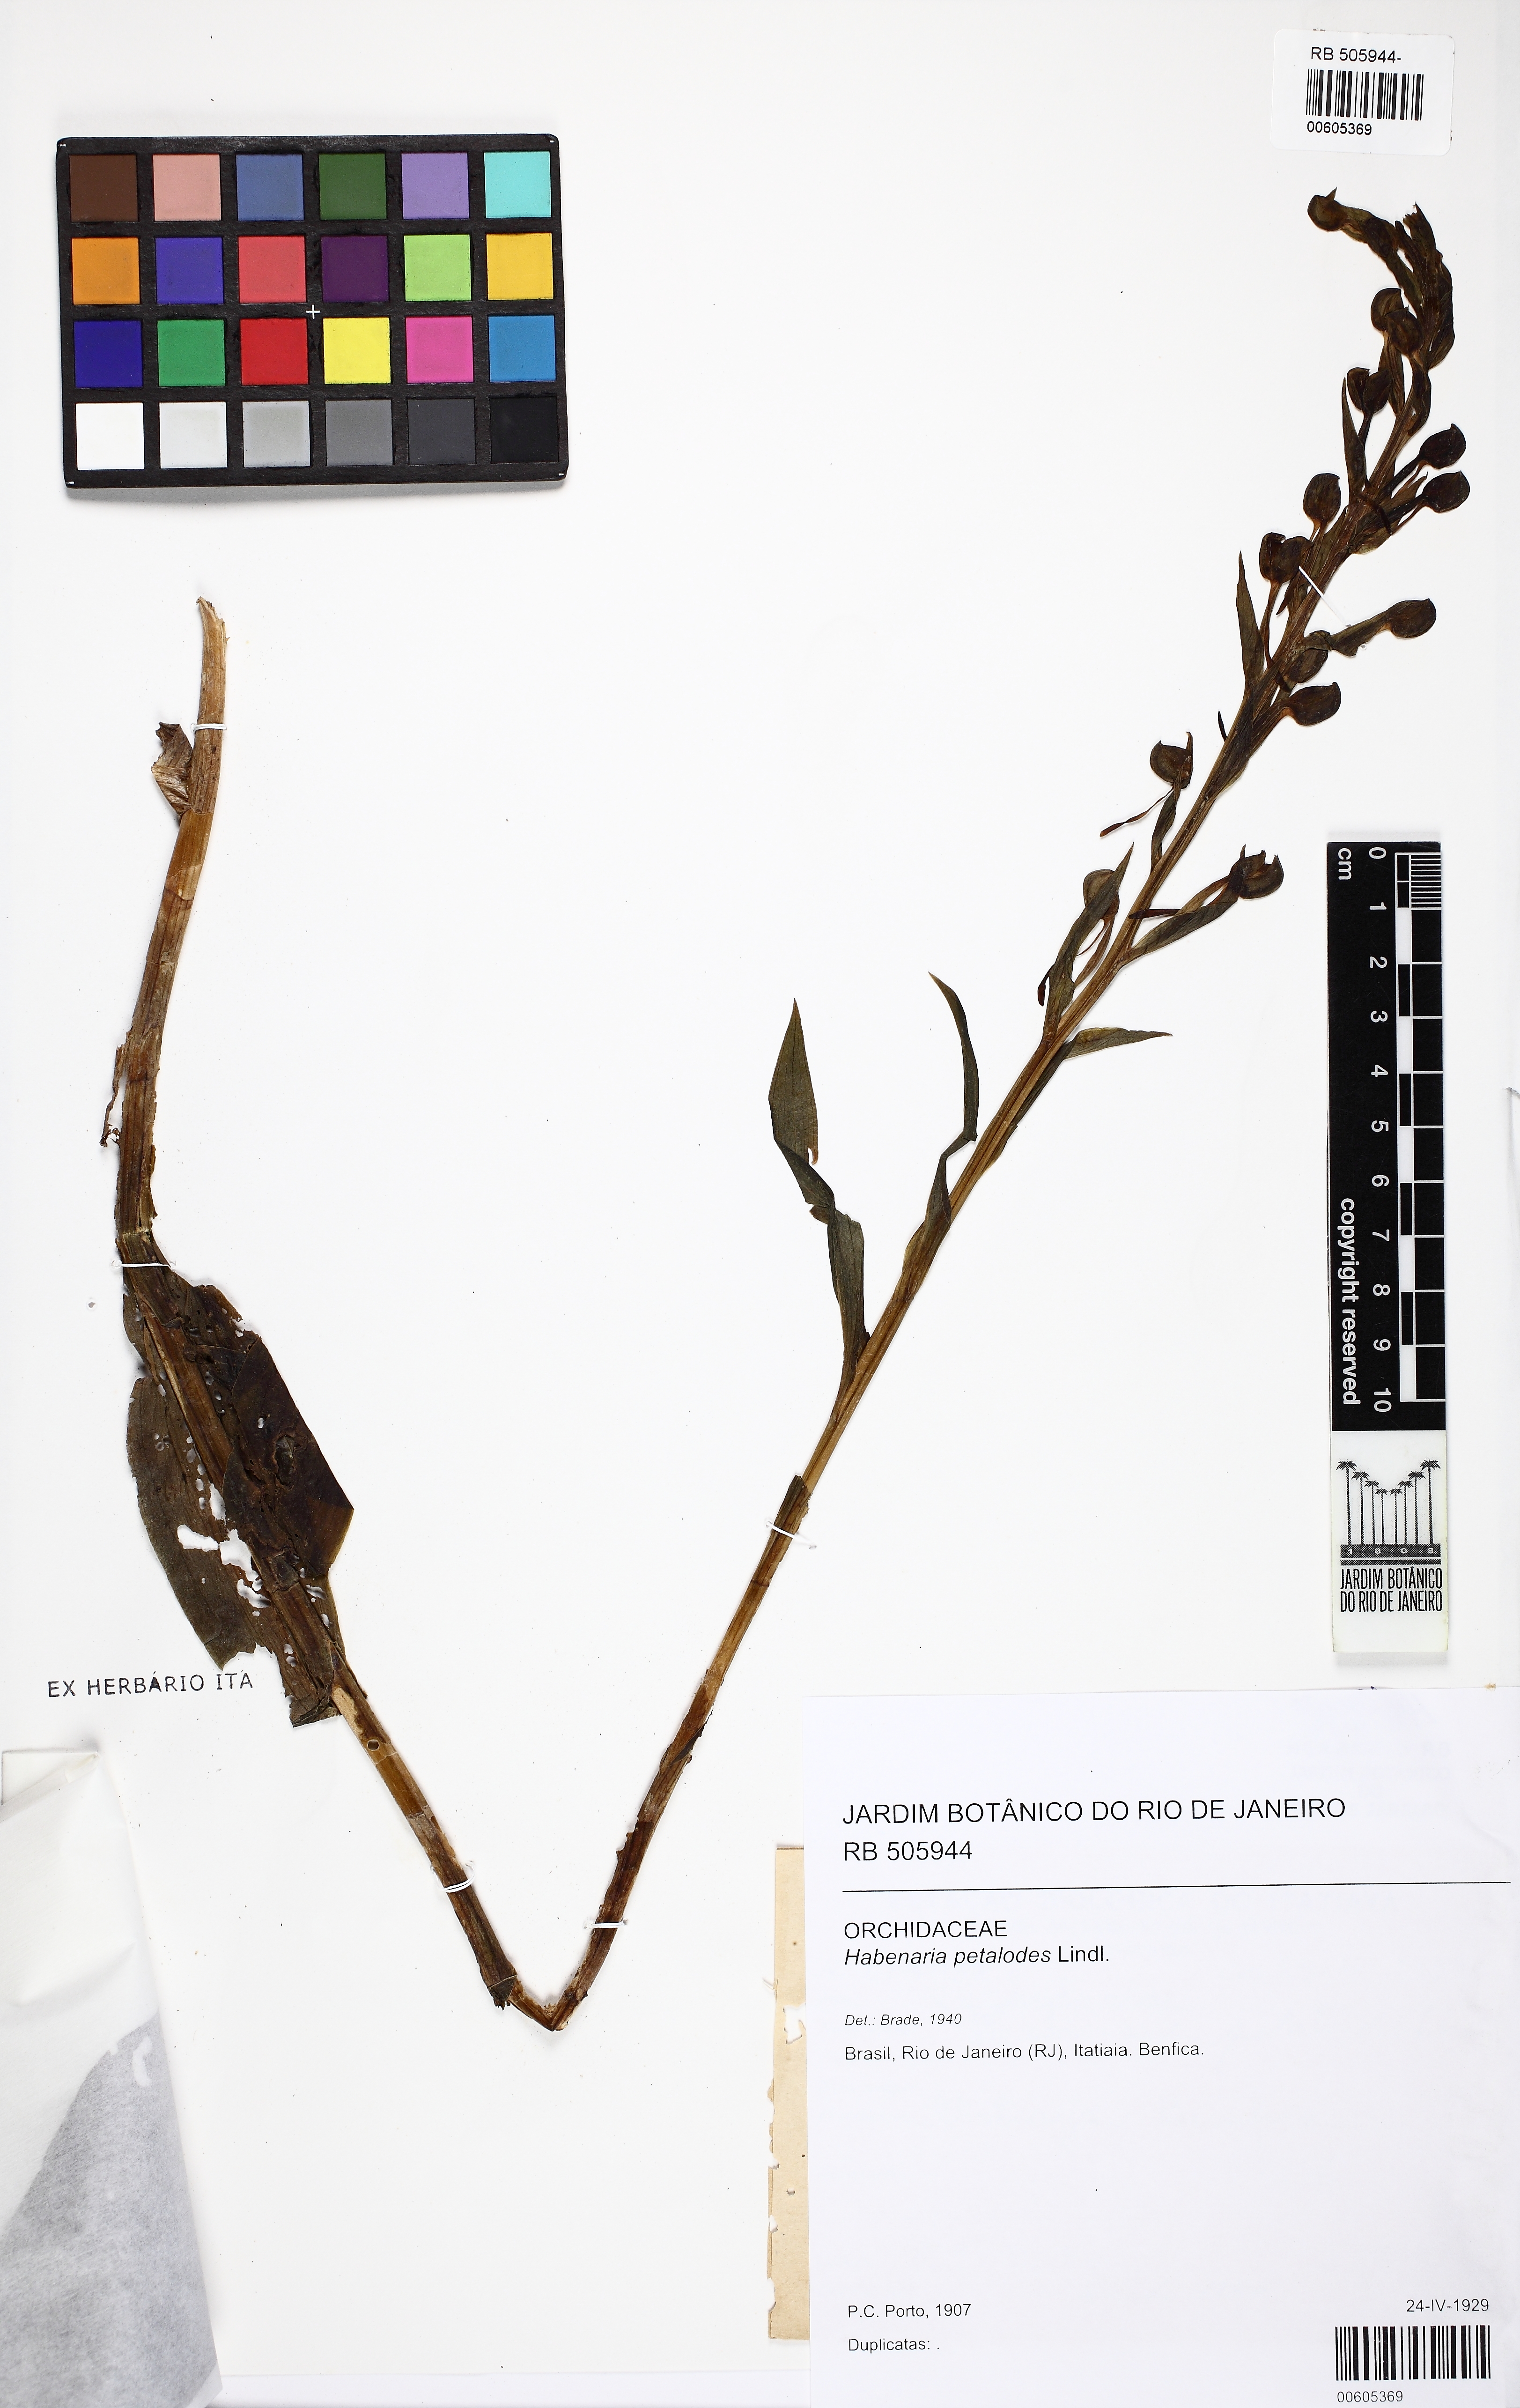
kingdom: Plantae
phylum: Tracheophyta
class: Liliopsida
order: Asparagales
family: Orchidaceae
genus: Habenaria
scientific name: Habenaria petalodes
